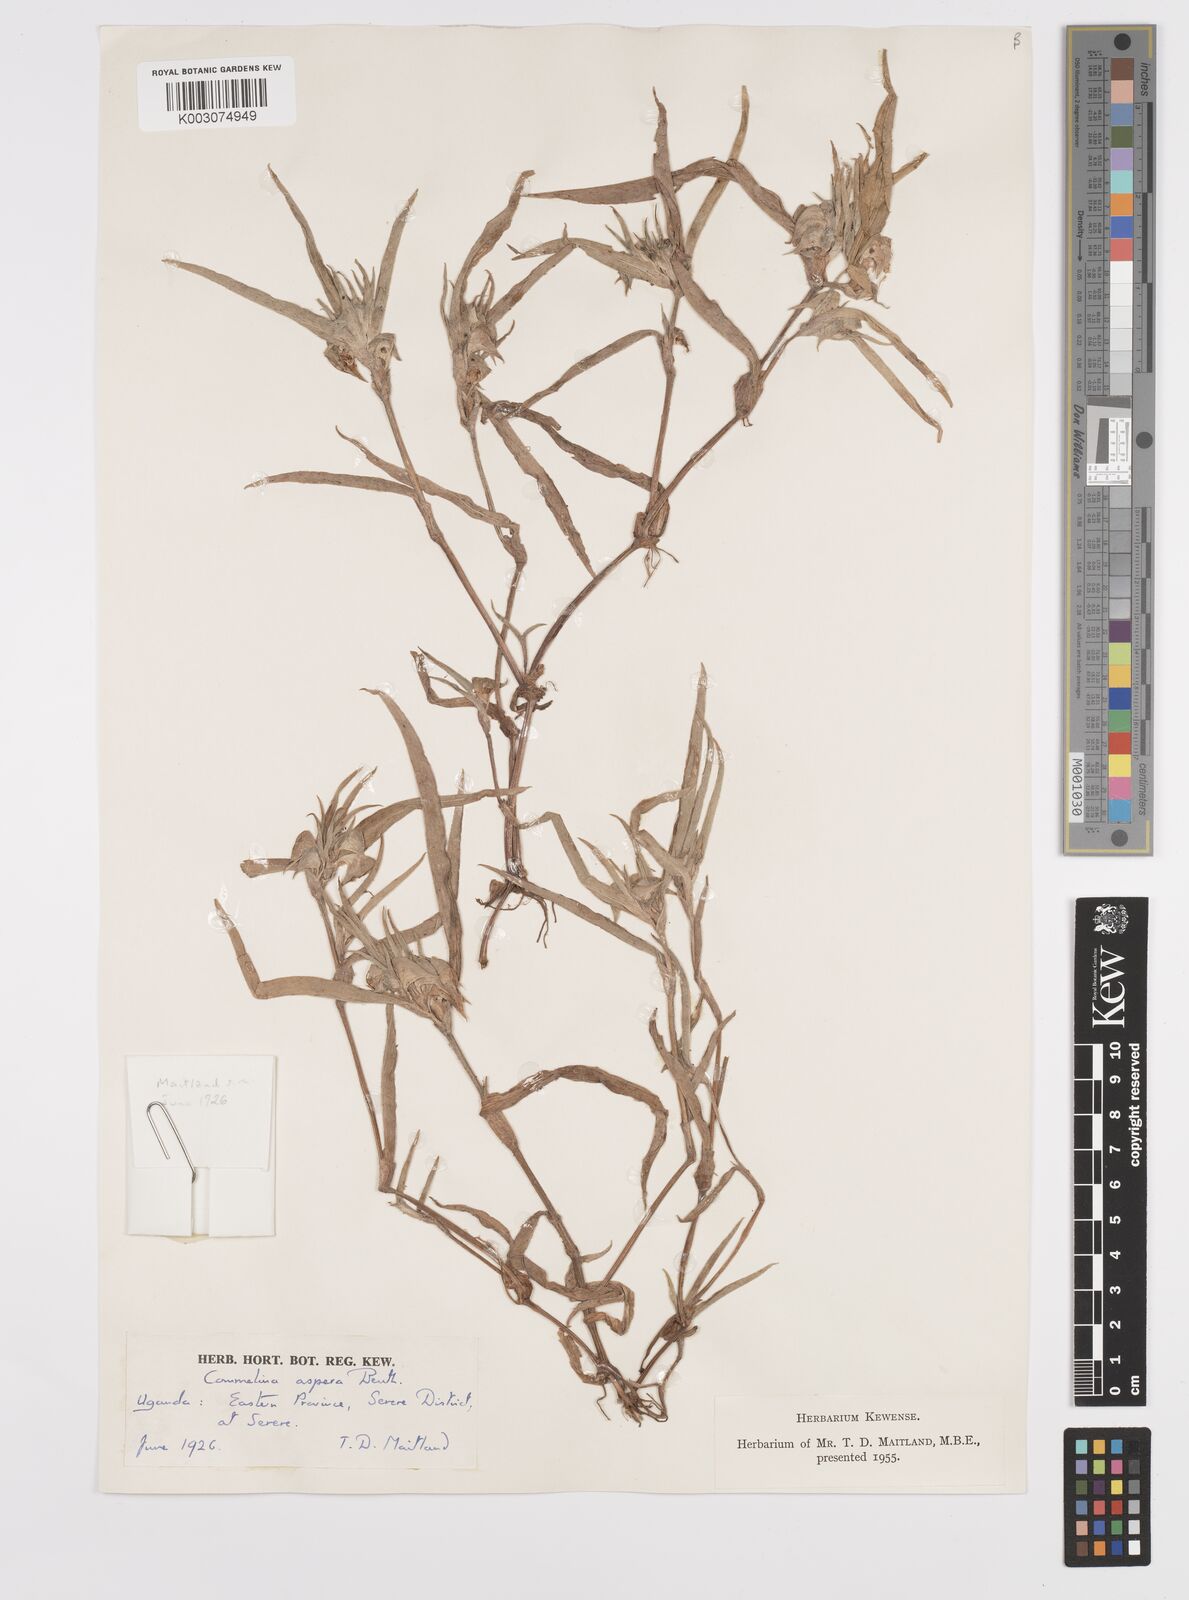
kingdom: Plantae
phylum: Tracheophyta
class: Liliopsida
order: Commelinales
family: Commelinaceae
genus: Commelina
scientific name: Commelina aspera
